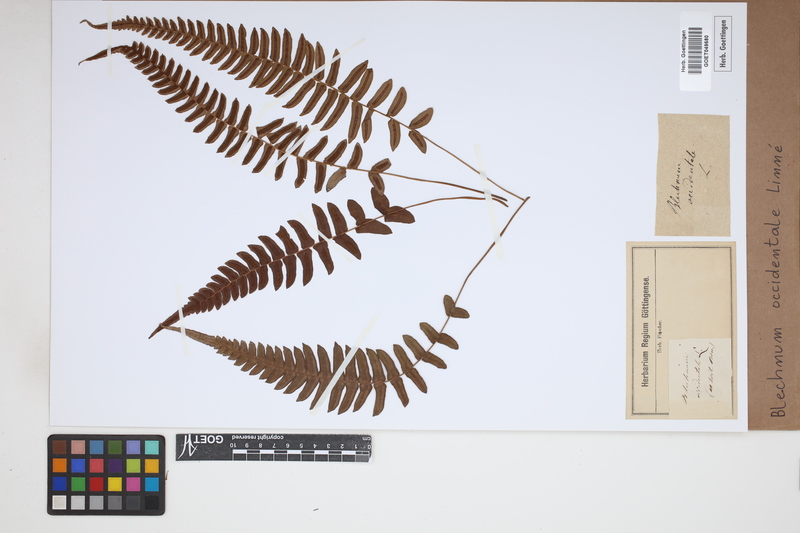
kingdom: Plantae
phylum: Tracheophyta
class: Polypodiopsida
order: Polypodiales
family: Blechnaceae
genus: Blechnum
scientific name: Blechnum occidentale
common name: Hammock fern
